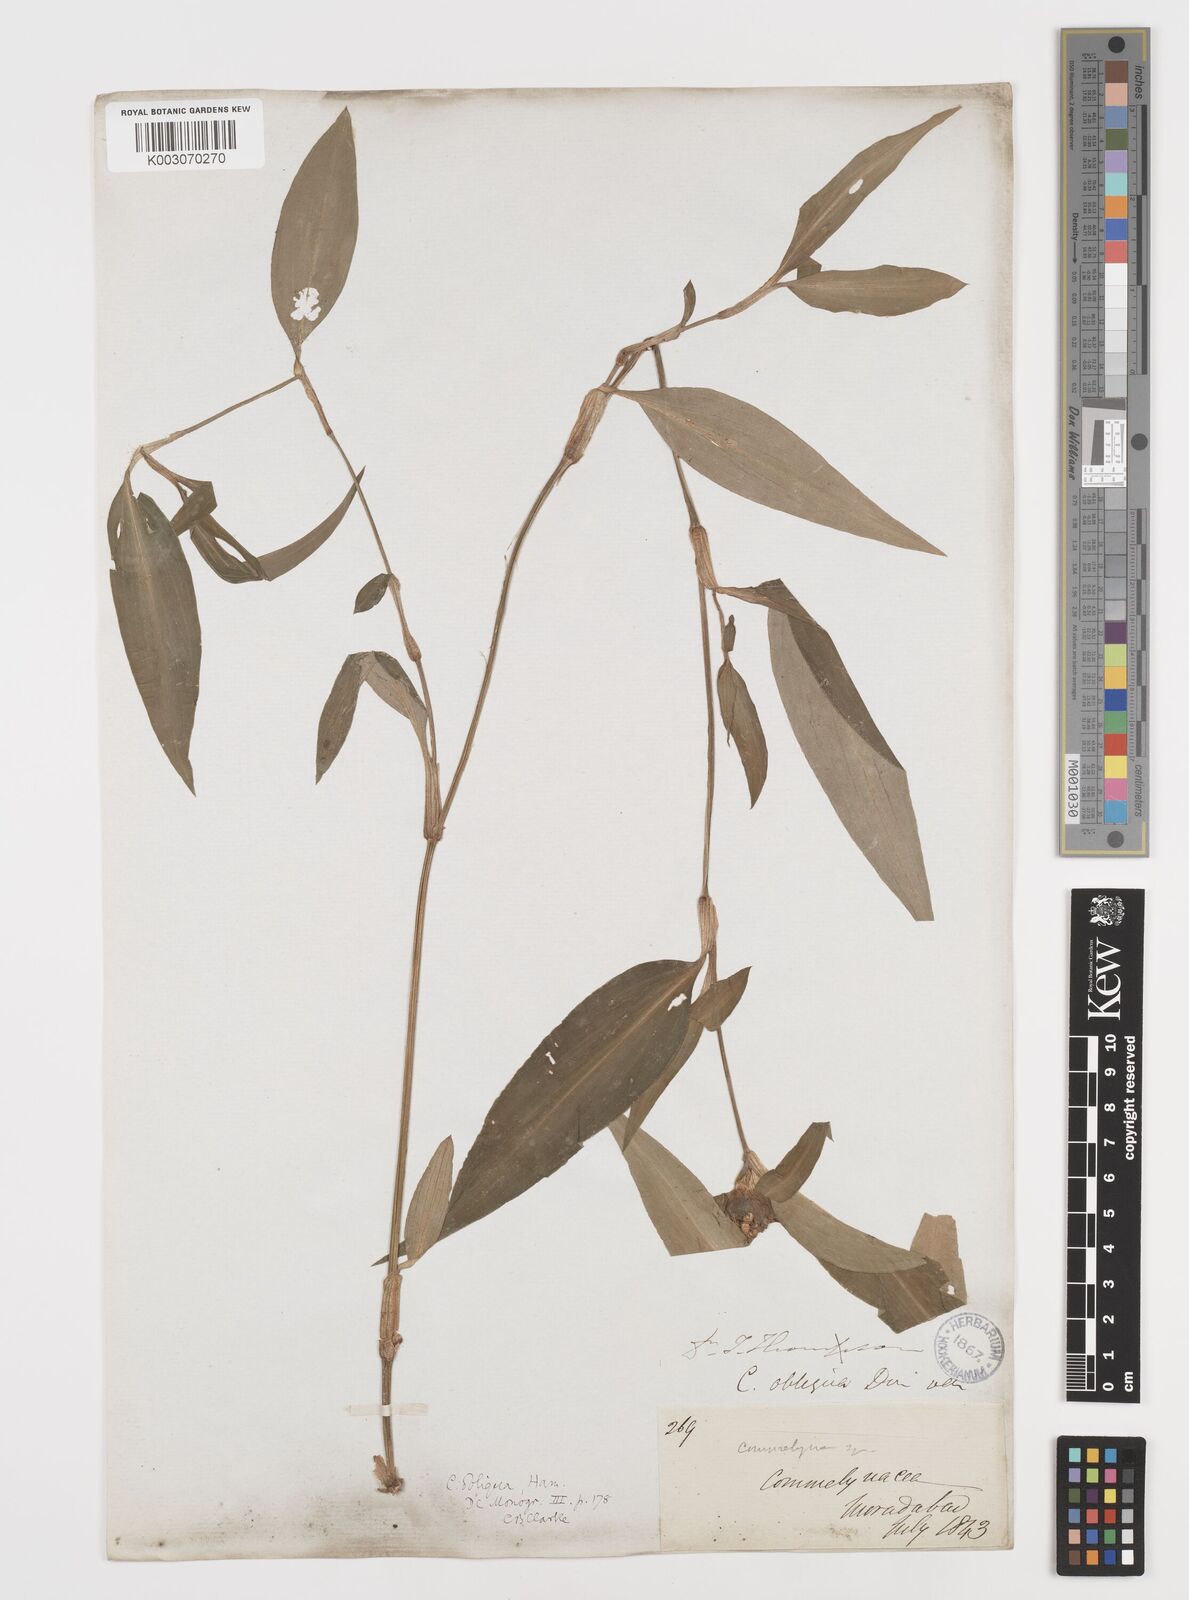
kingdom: Plantae
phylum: Tracheophyta
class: Liliopsida
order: Commelinales
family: Commelinaceae
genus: Commelina
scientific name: Commelina paludosa
